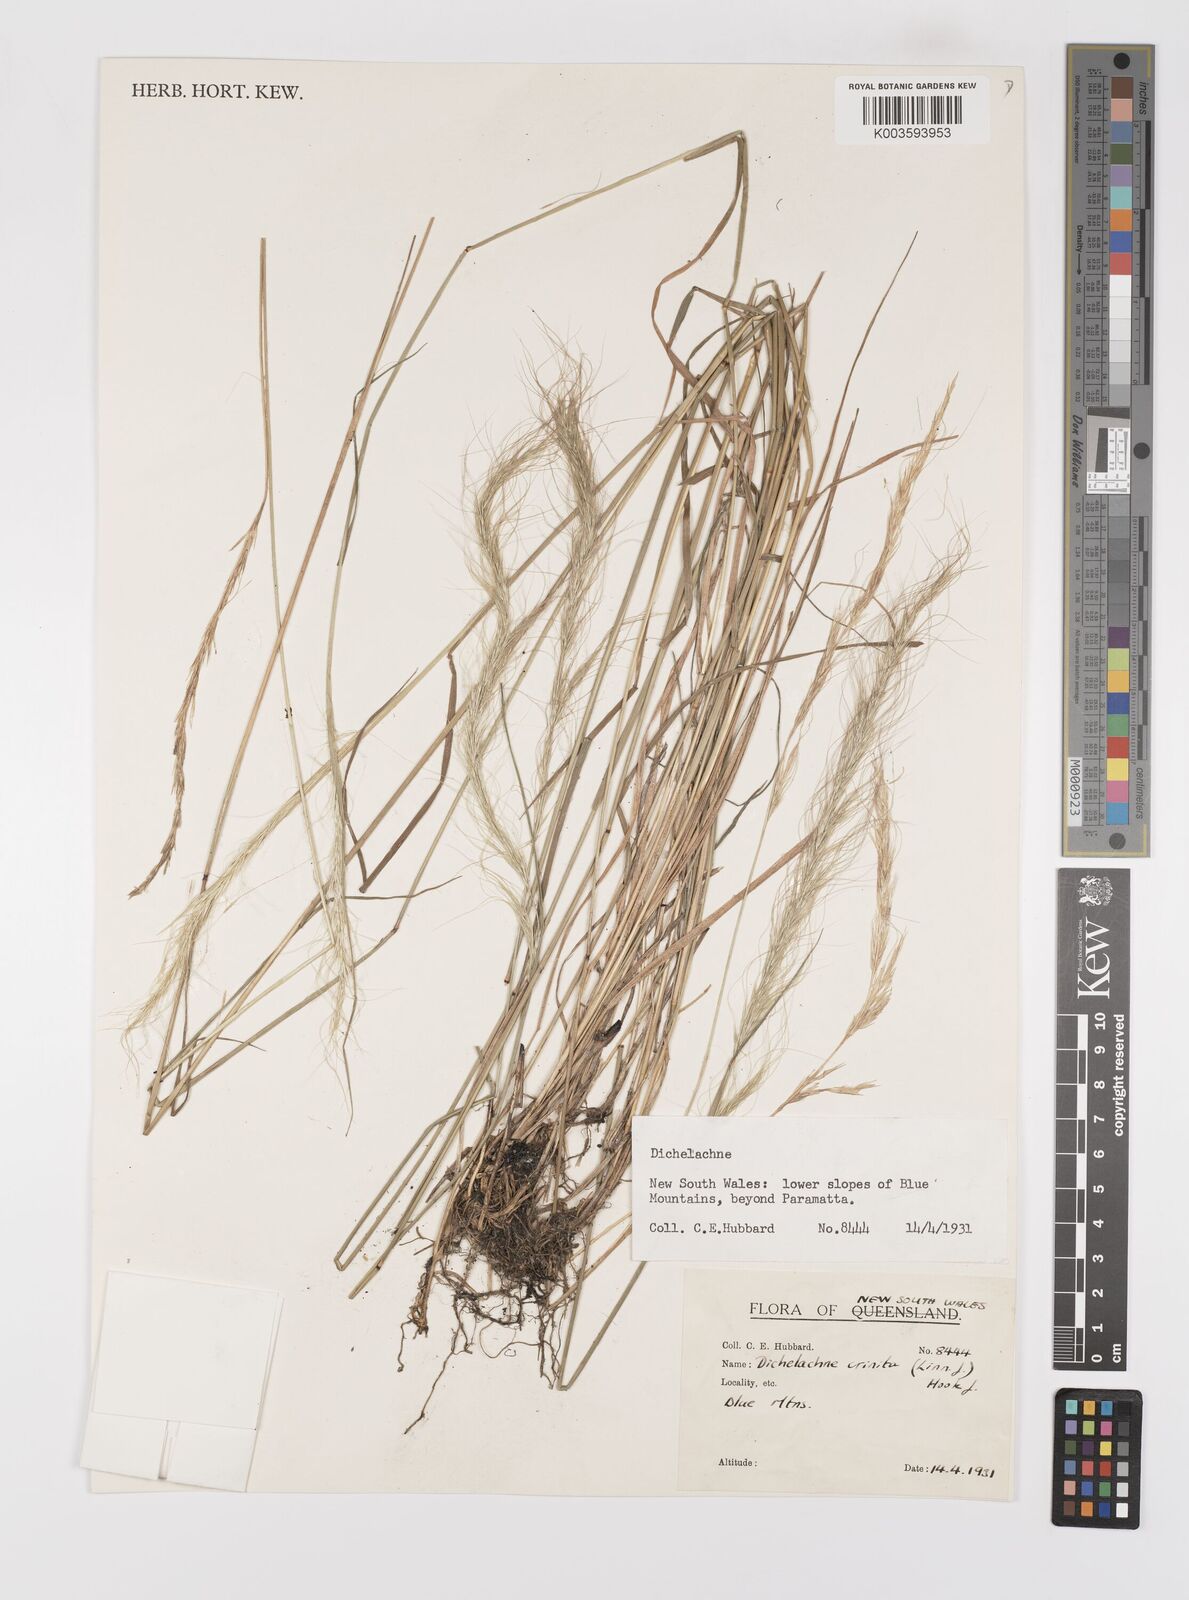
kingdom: Plantae
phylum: Tracheophyta
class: Liliopsida
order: Poales
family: Poaceae
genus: Dichelachne
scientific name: Dichelachne
